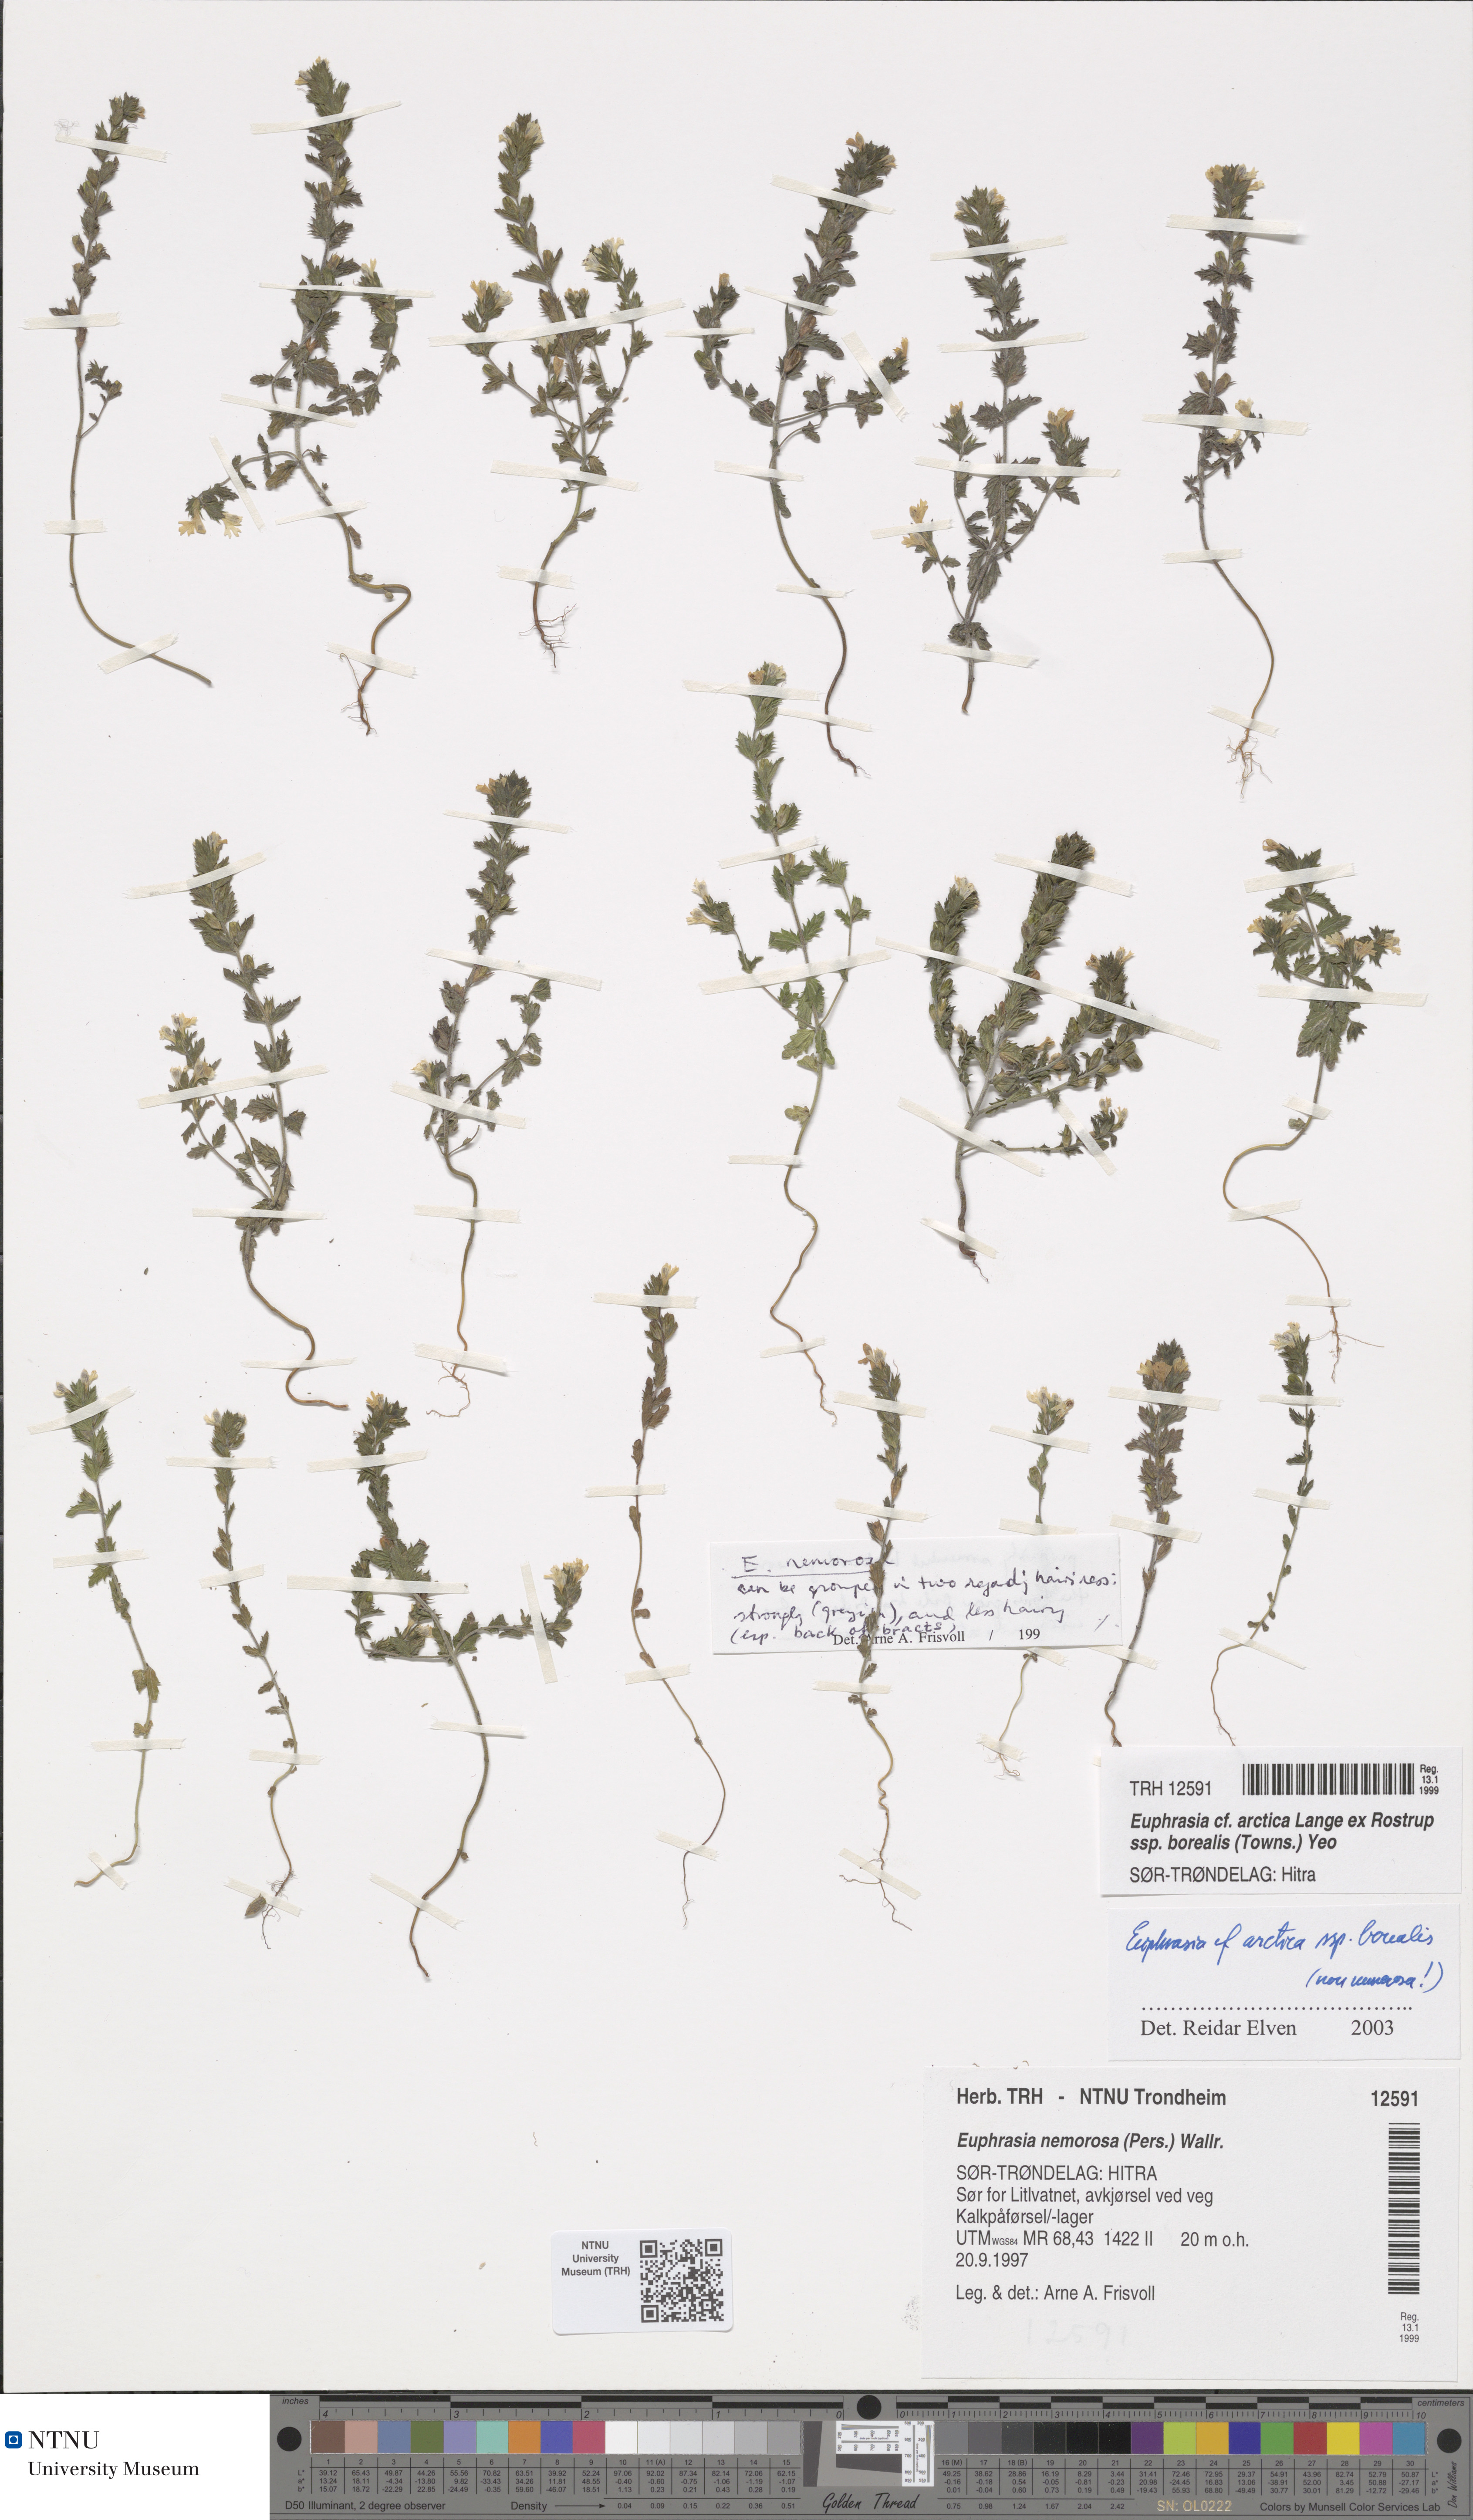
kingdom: Plantae
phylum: Tracheophyta
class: Magnoliopsida
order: Lamiales
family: Orobanchaceae
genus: Euphrasia
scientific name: Euphrasia arctica
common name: An eyebright
